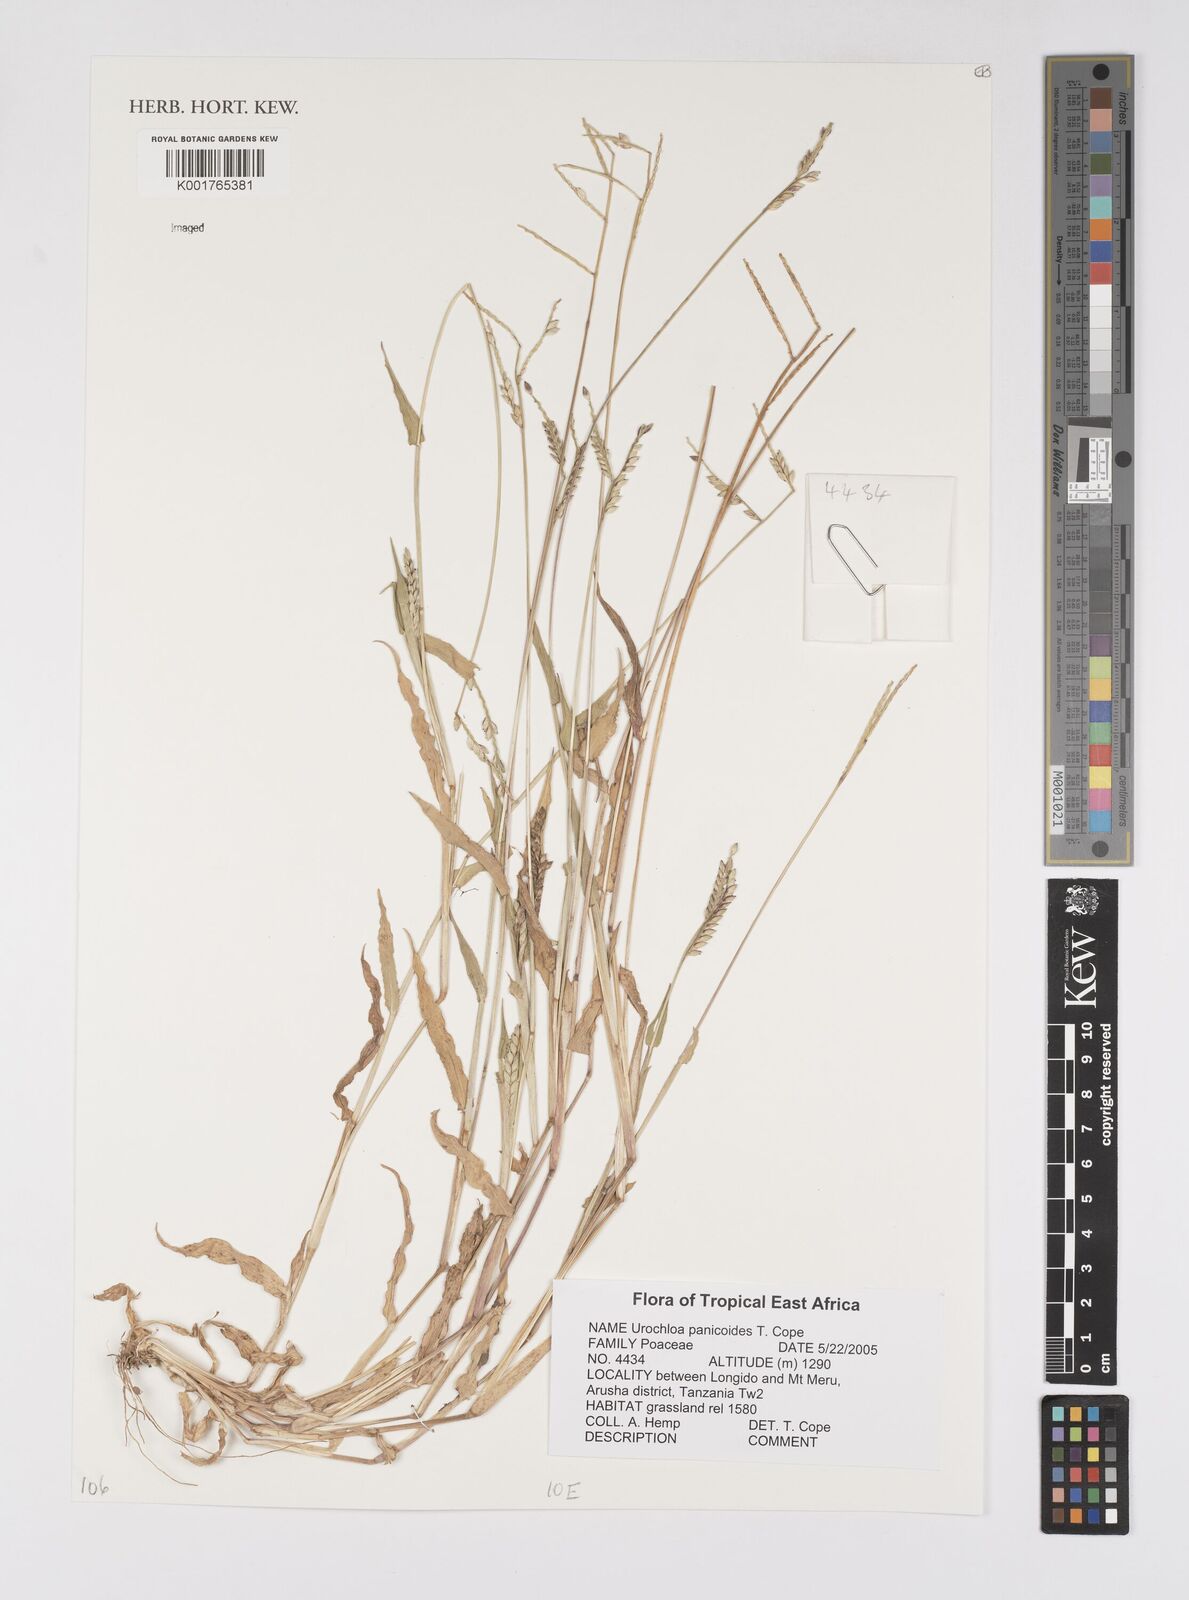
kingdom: Plantae
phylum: Tracheophyta
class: Liliopsida
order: Poales
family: Poaceae
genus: Urochloa
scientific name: Urochloa panicoides
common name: Sharp-flowered signal-grass
